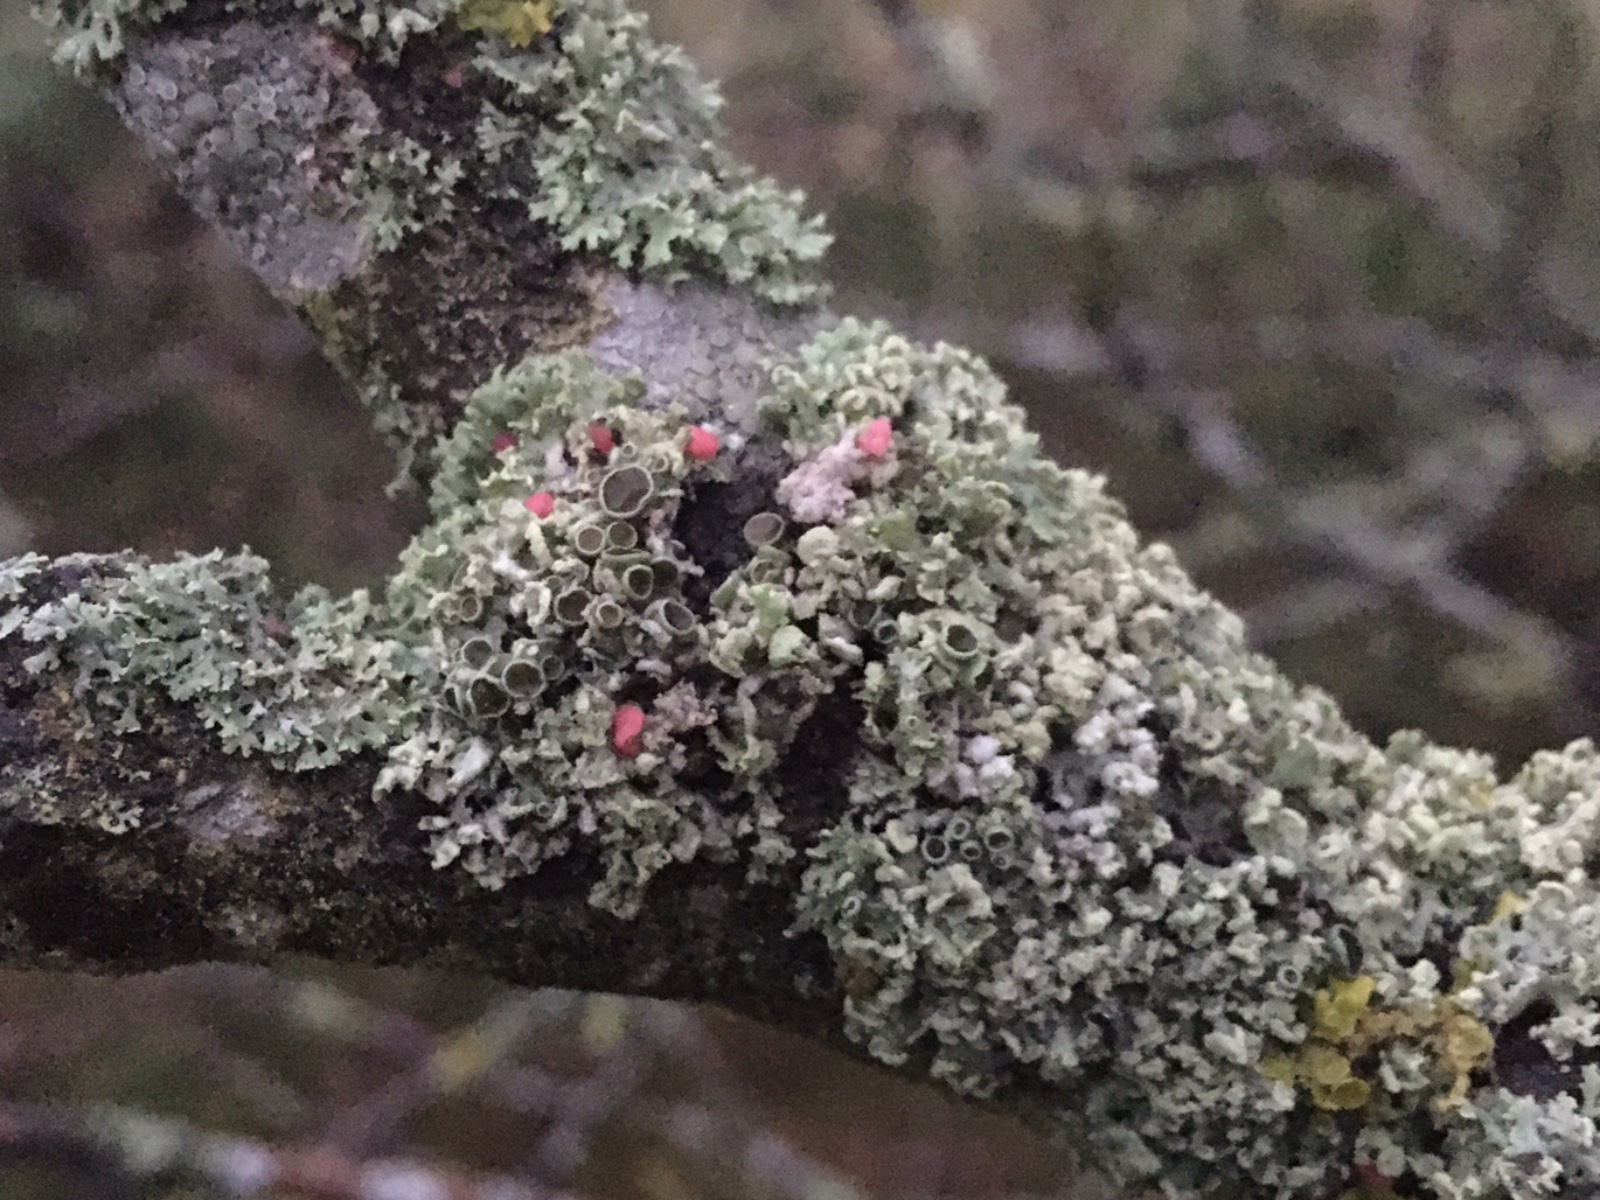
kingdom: Fungi
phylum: Ascomycota
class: Sordariomycetes
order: Hypocreales
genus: Illosporiopsis
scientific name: Illosporiopsis christiansenii
